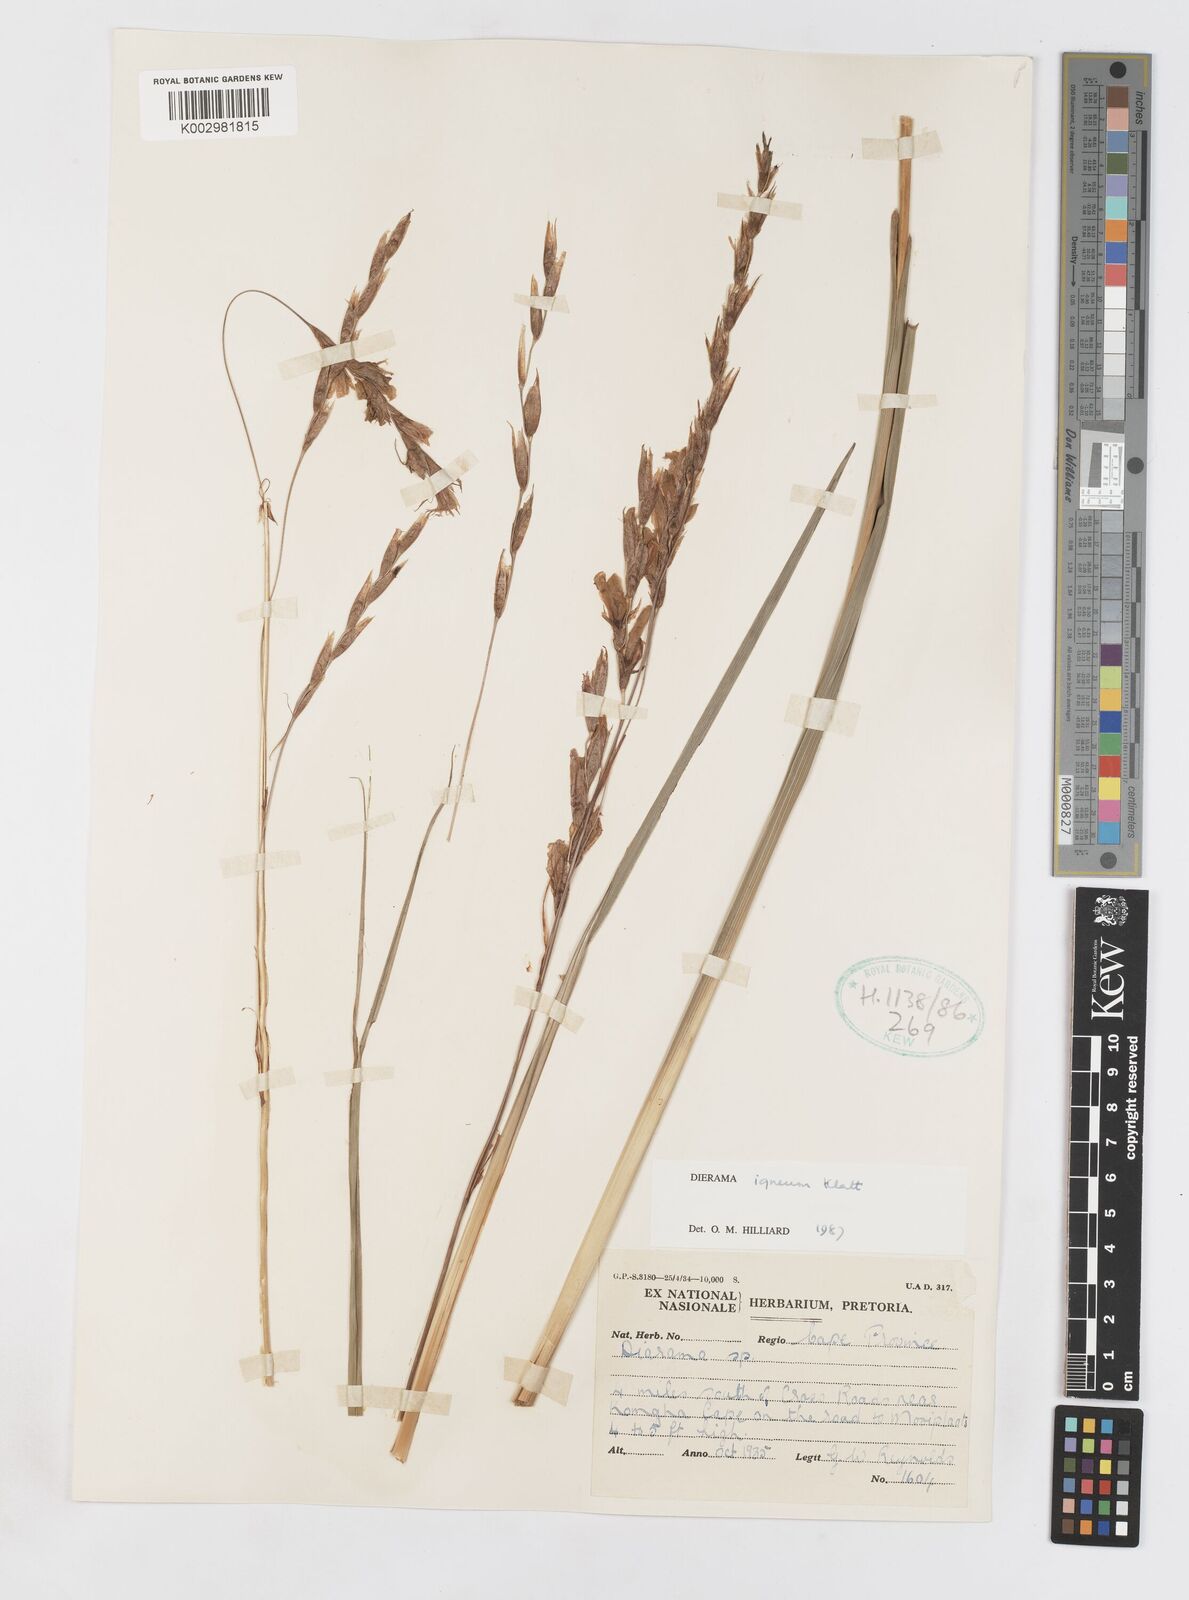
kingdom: Plantae
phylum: Tracheophyta
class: Liliopsida
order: Asparagales
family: Iridaceae
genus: Dierama
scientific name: Dierama igneum
